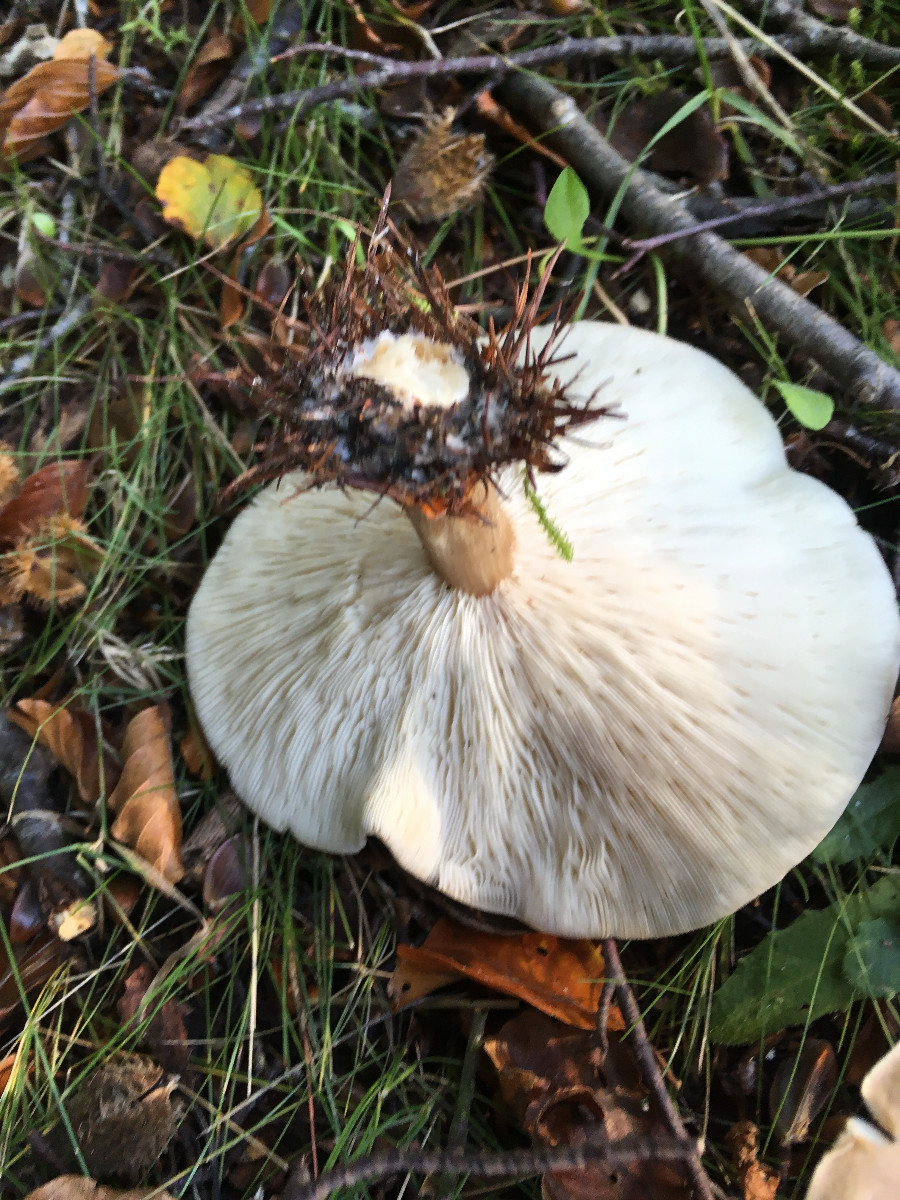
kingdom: Fungi
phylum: Basidiomycota
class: Agaricomycetes
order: Agaricales
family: Tricholomataceae
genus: Melanoleuca
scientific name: Melanoleuca
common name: munkehat
